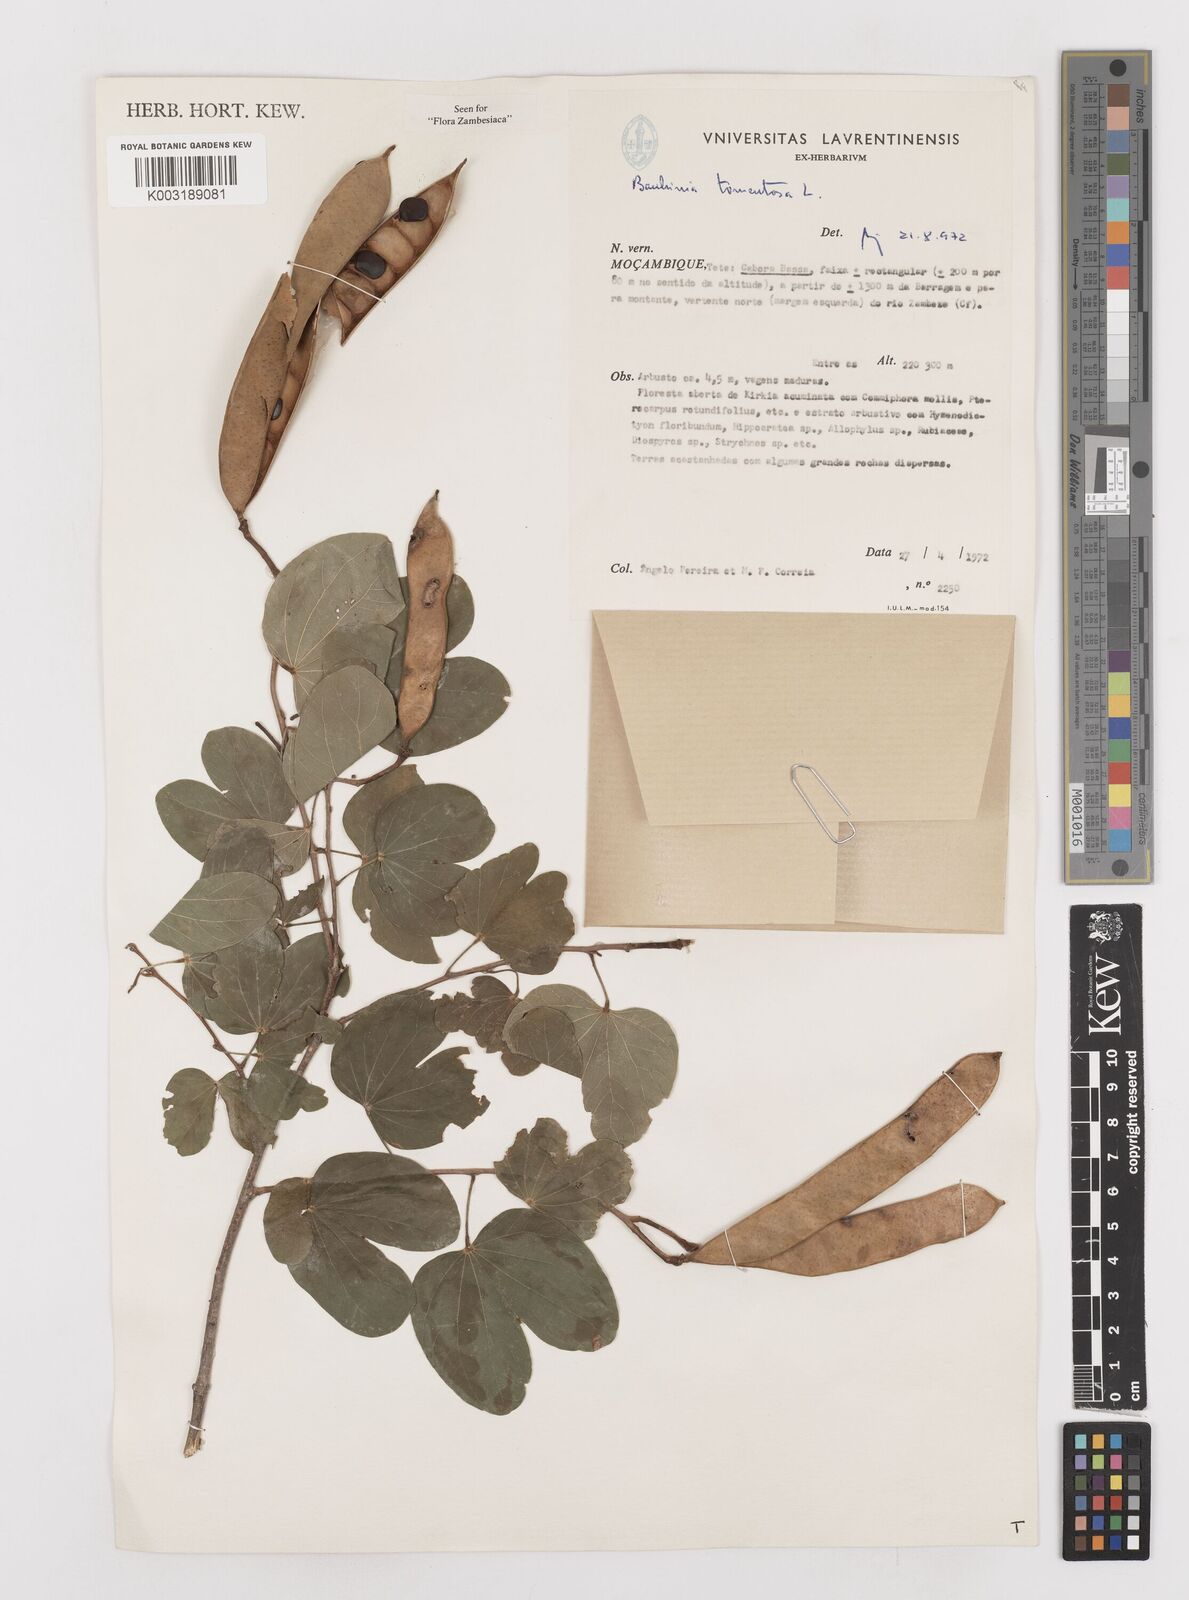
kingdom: Plantae
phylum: Tracheophyta
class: Magnoliopsida
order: Fabales
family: Fabaceae
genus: Bauhinia
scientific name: Bauhinia tomentosa
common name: Bell bauhinia
